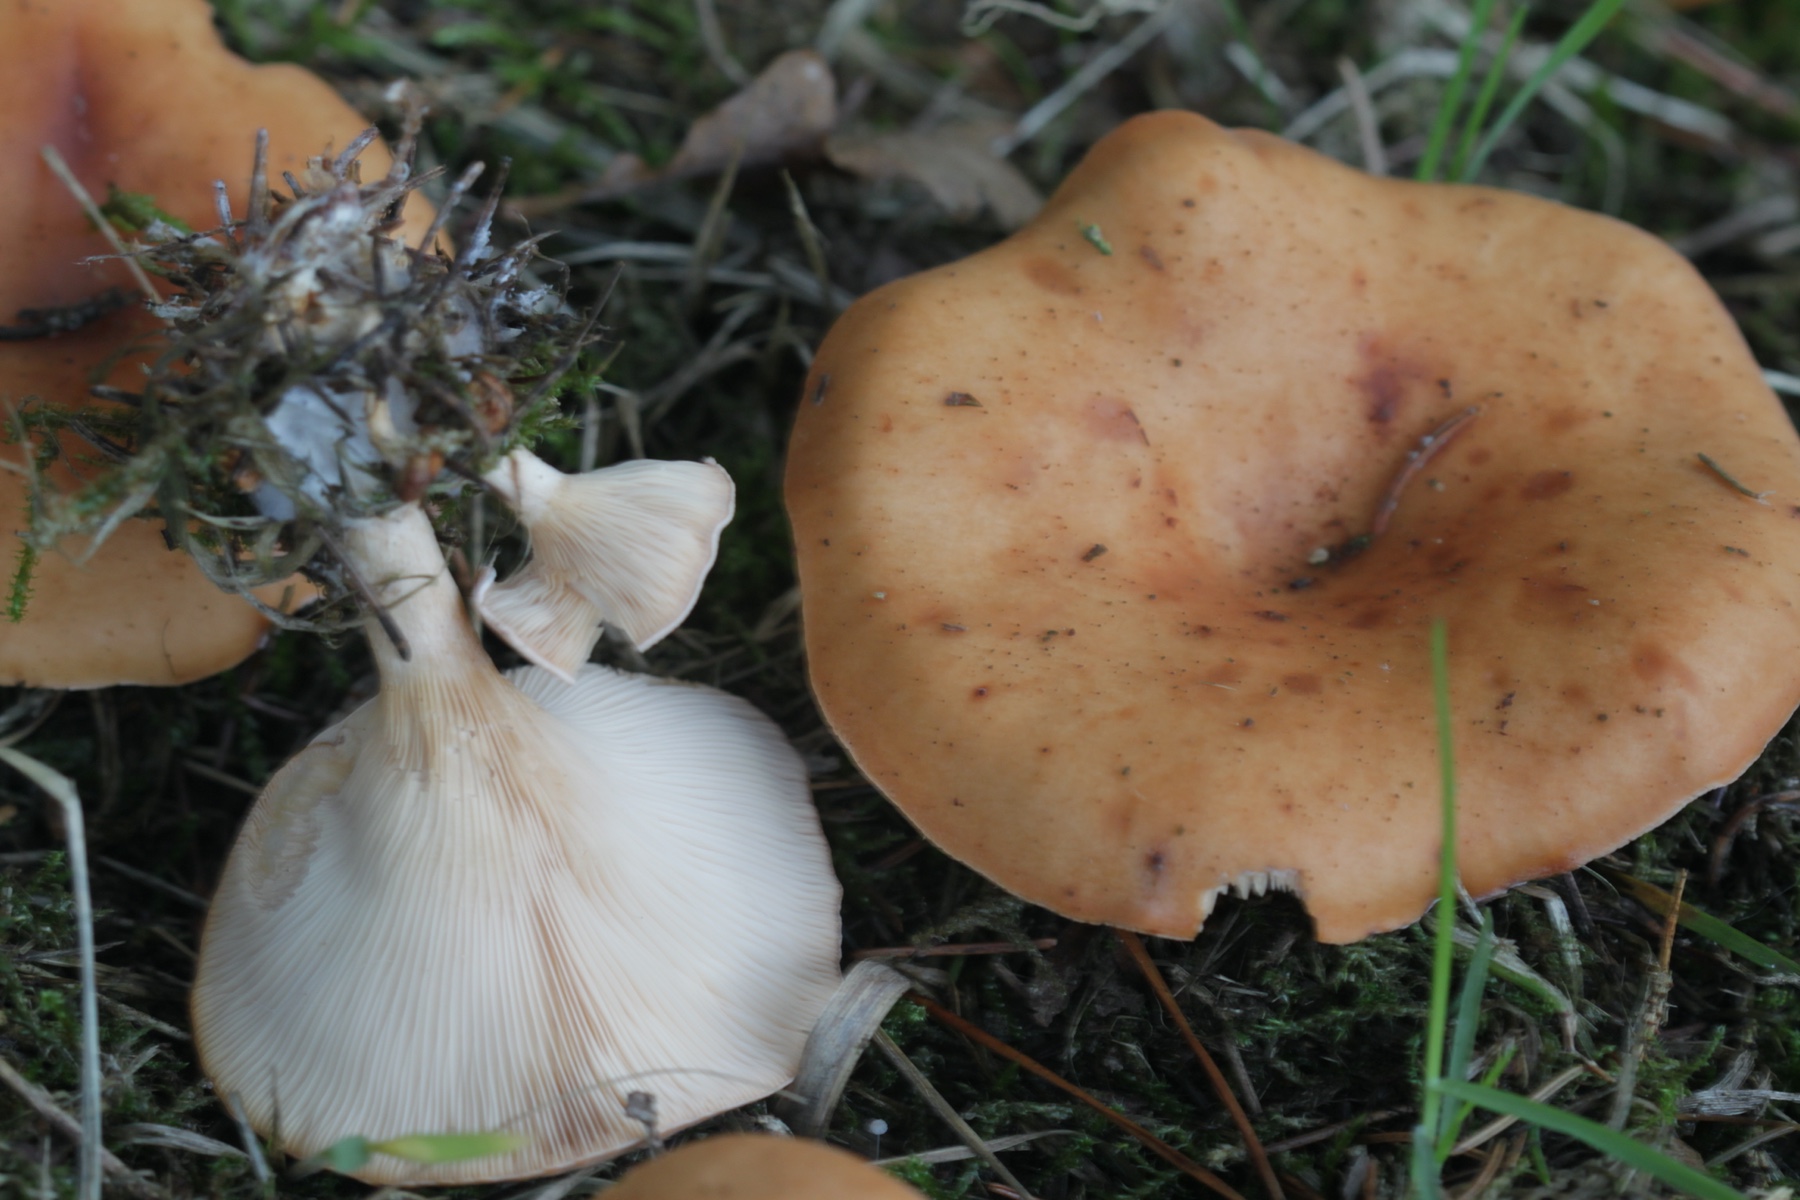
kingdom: Fungi
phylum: Basidiomycota
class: Agaricomycetes
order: Agaricales
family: Tricholomataceae
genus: Paralepista
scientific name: Paralepista flaccida
